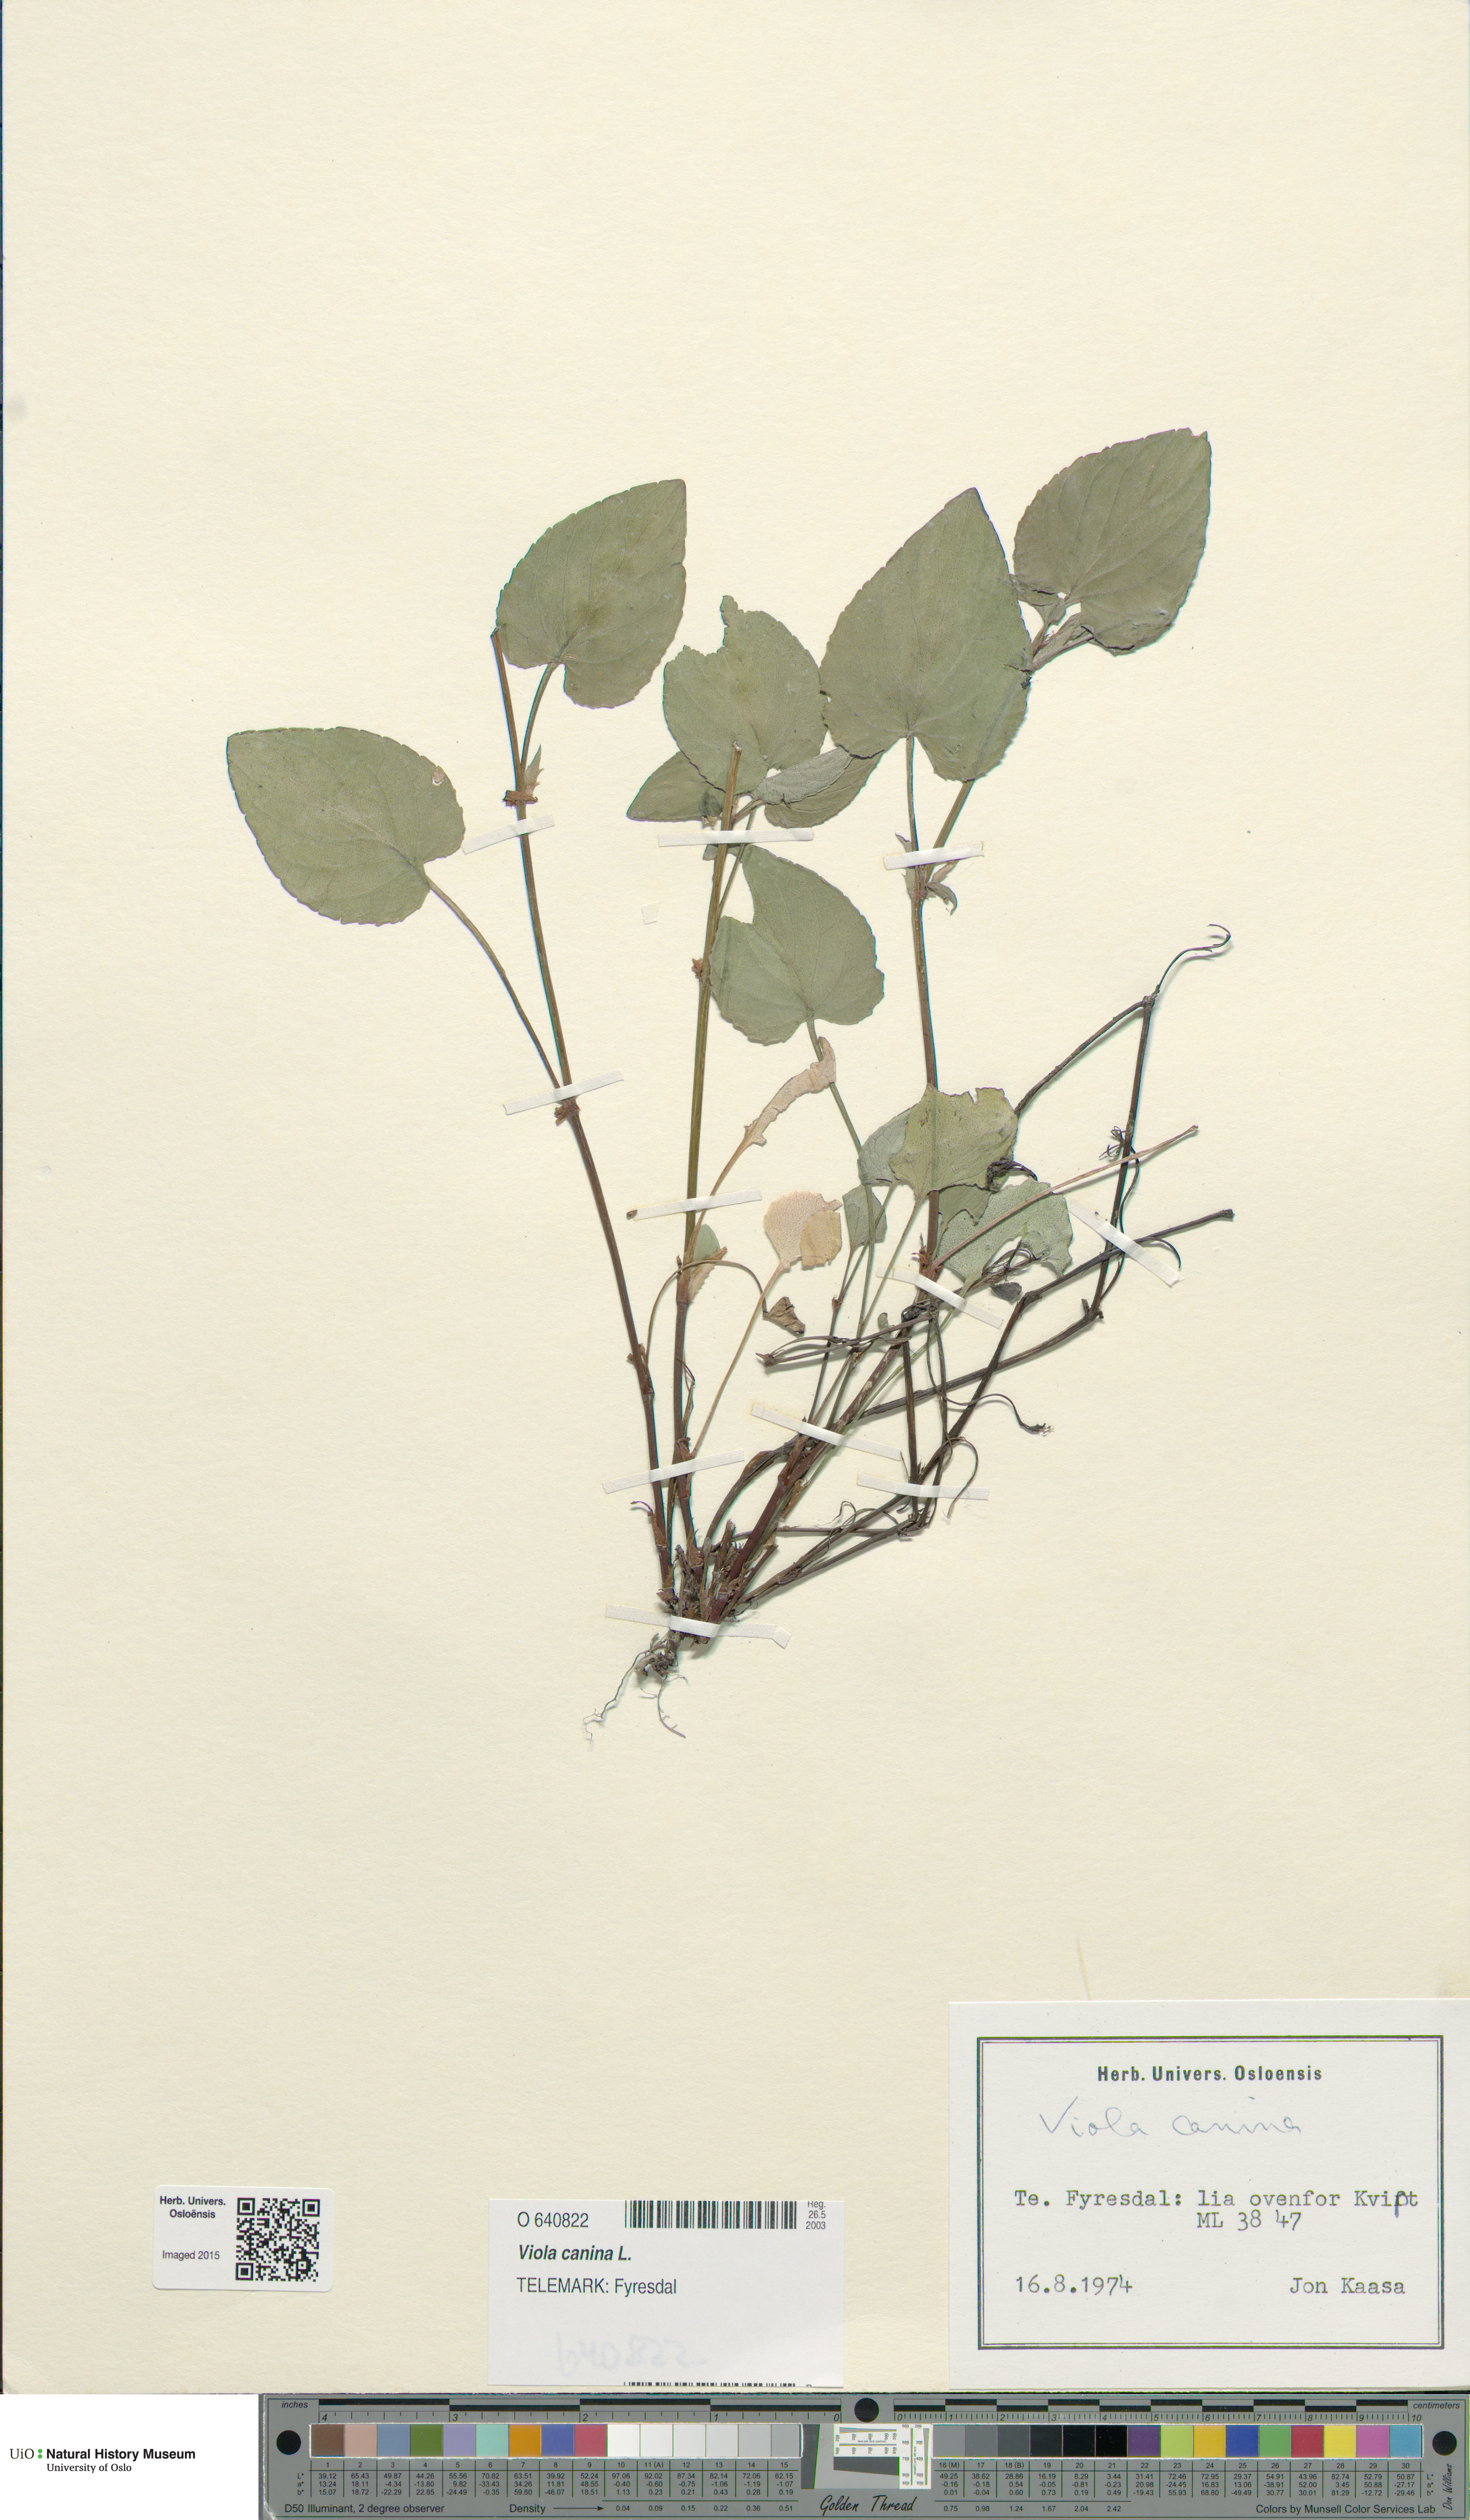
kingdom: Plantae
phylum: Tracheophyta
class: Magnoliopsida
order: Malpighiales
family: Violaceae
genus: Viola
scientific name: Viola canina
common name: Heath dog-violet
